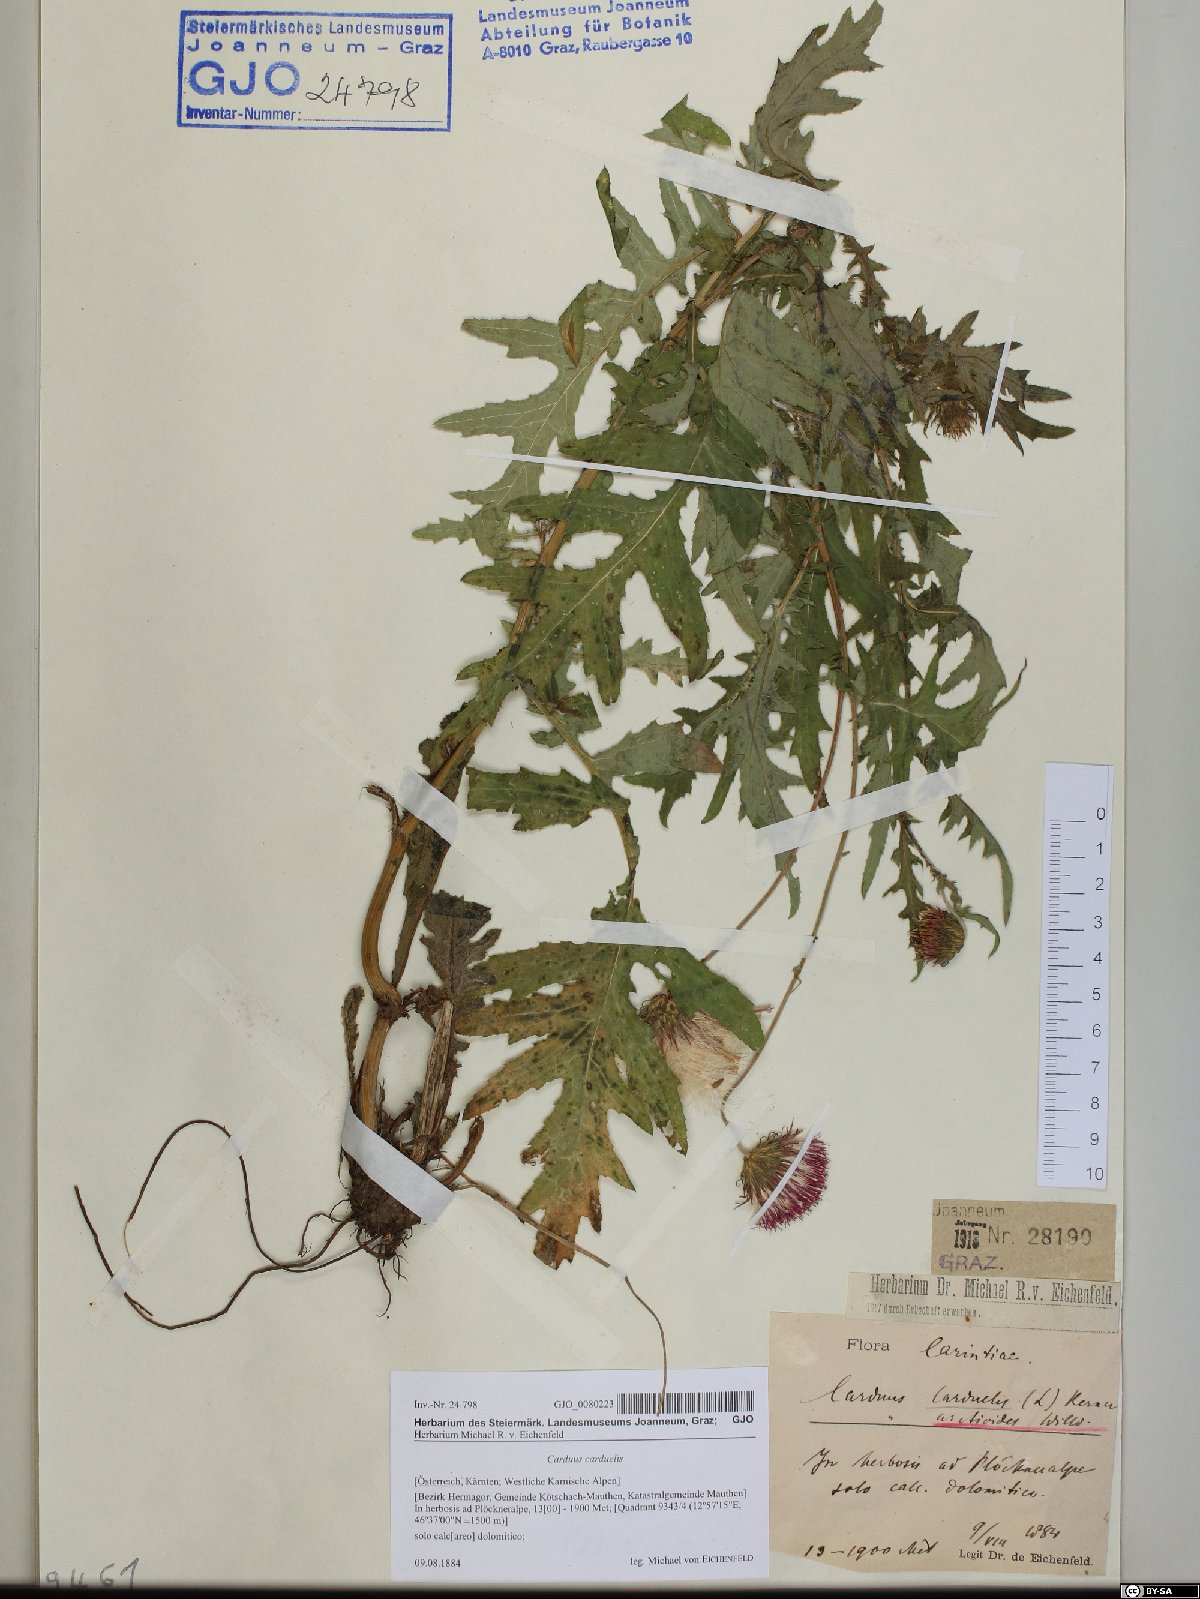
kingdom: Plantae
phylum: Tracheophyta
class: Magnoliopsida
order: Asterales
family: Asteraceae
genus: Carduus
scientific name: Carduus carduelis
